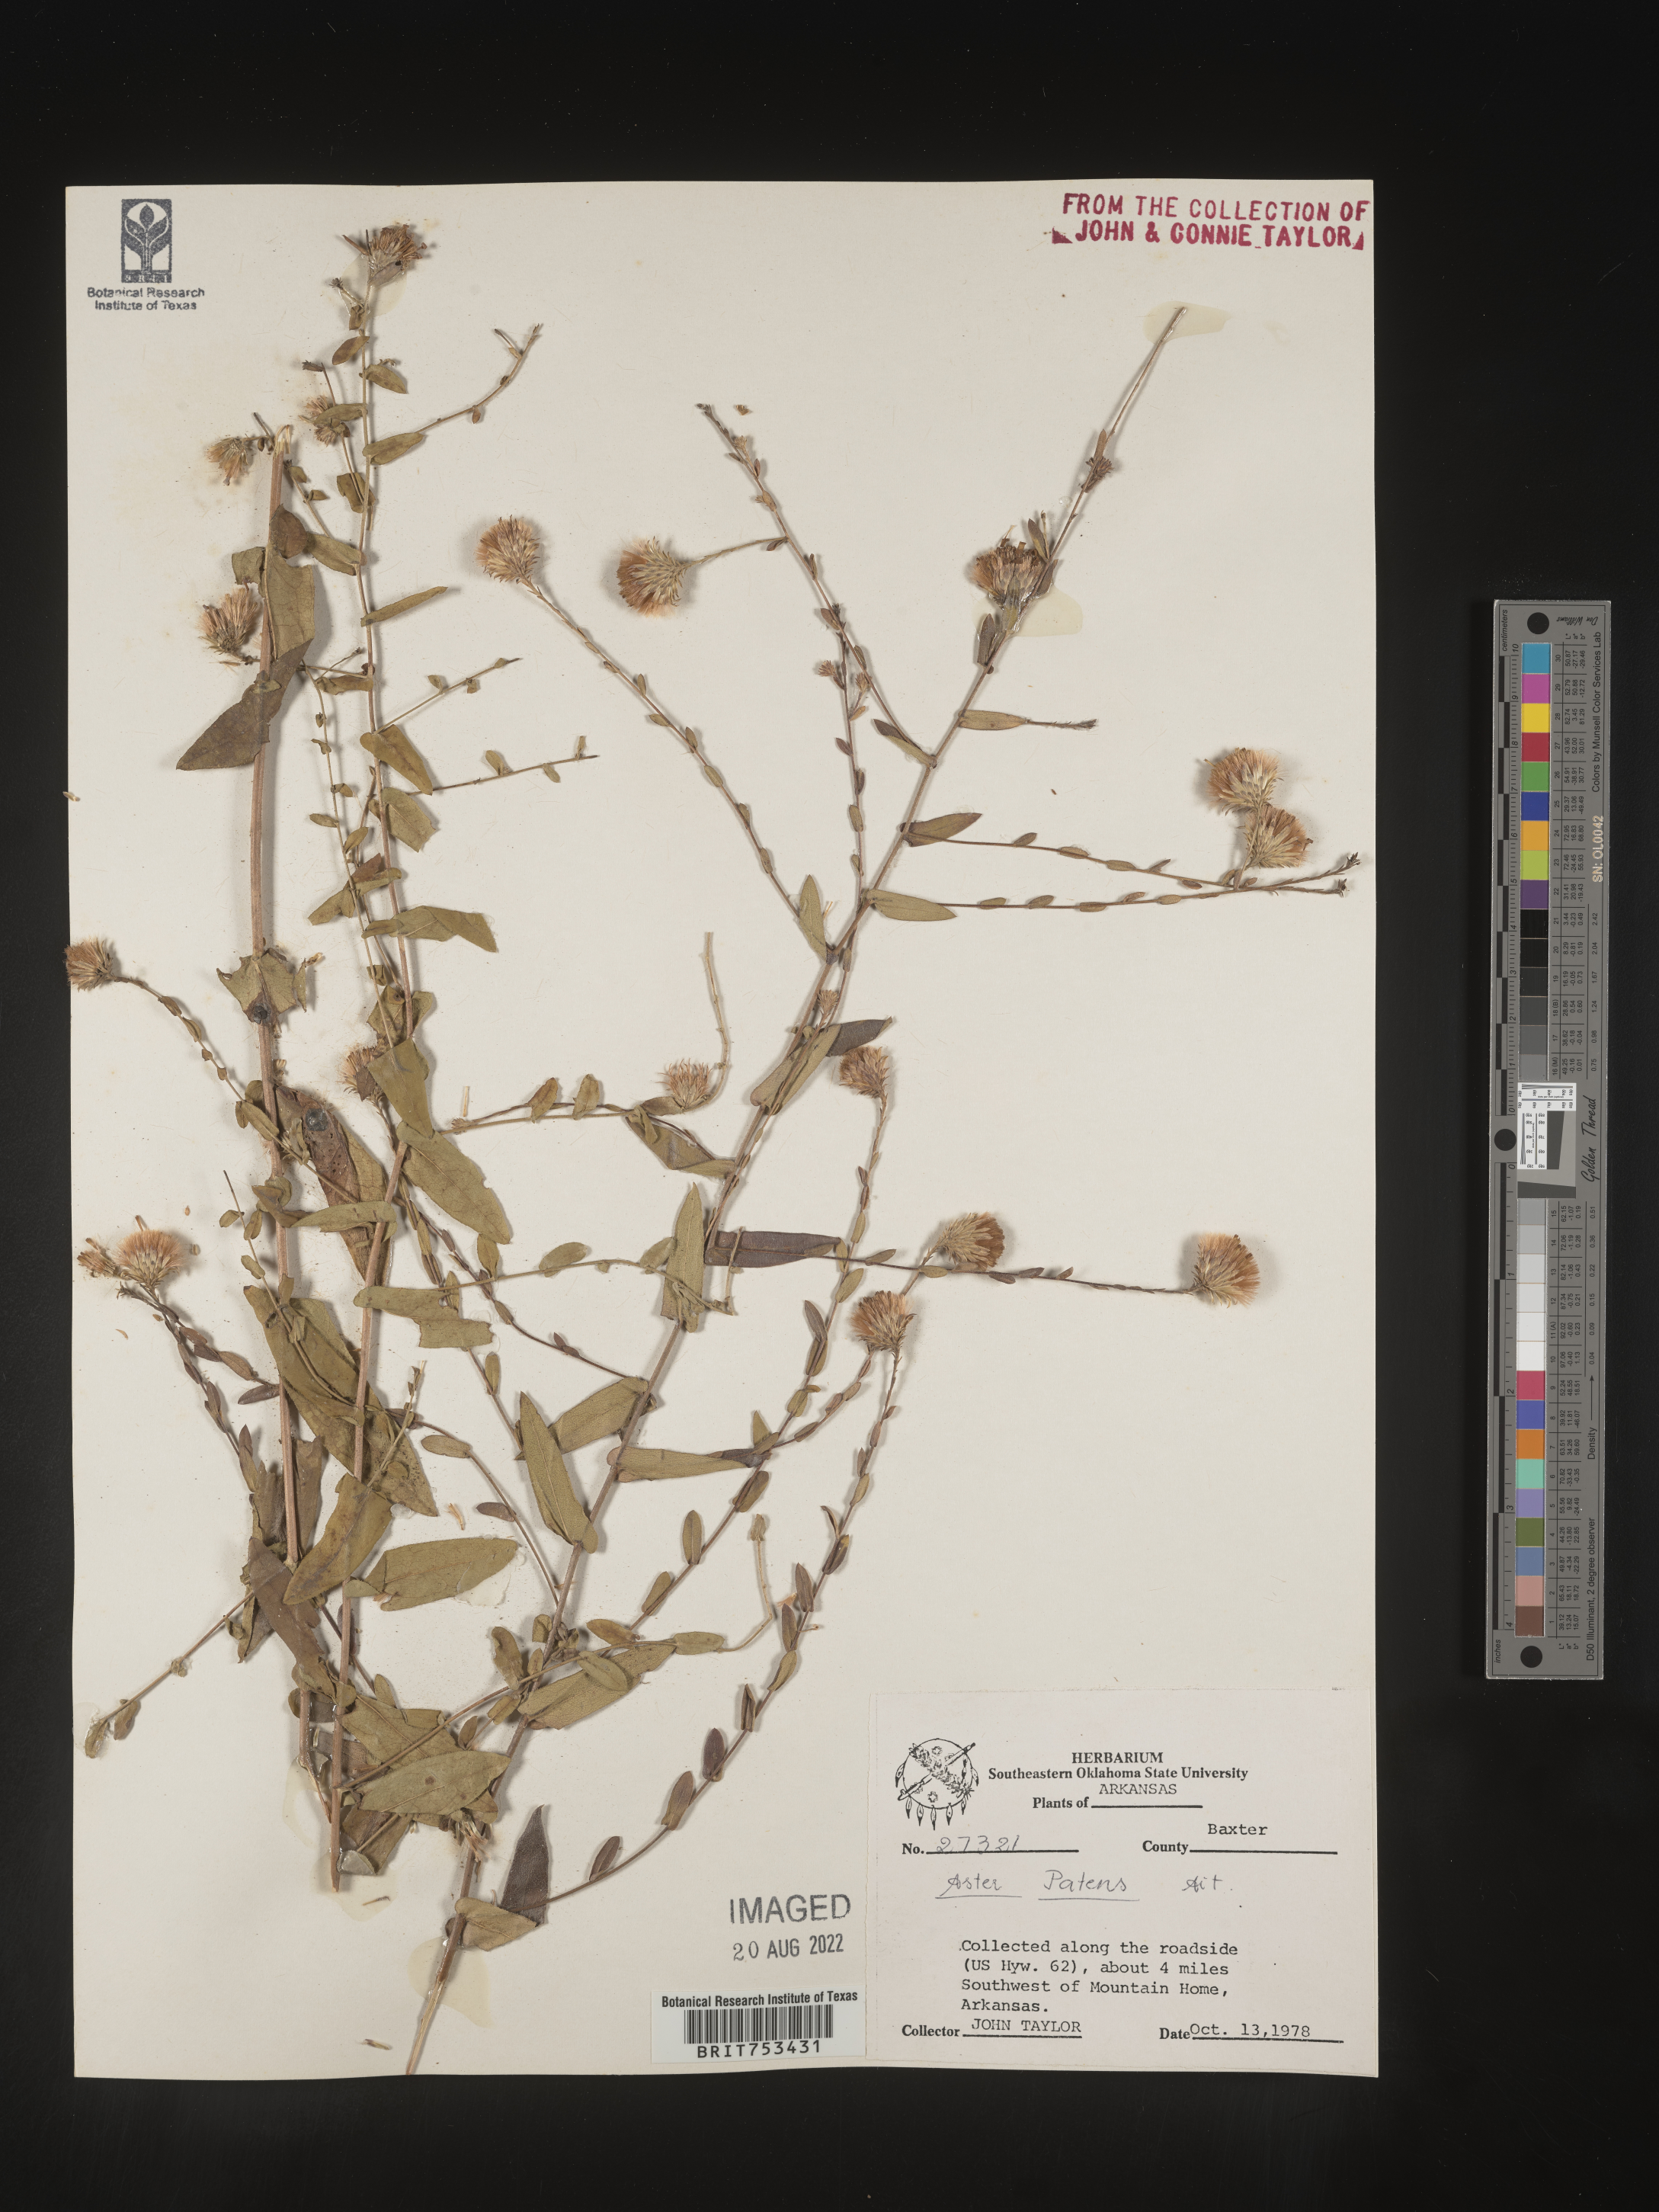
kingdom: Plantae
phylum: Tracheophyta
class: Magnoliopsida
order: Asterales
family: Asteraceae
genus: Symphyotrichum
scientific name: Symphyotrichum patens
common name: Late purple aster
